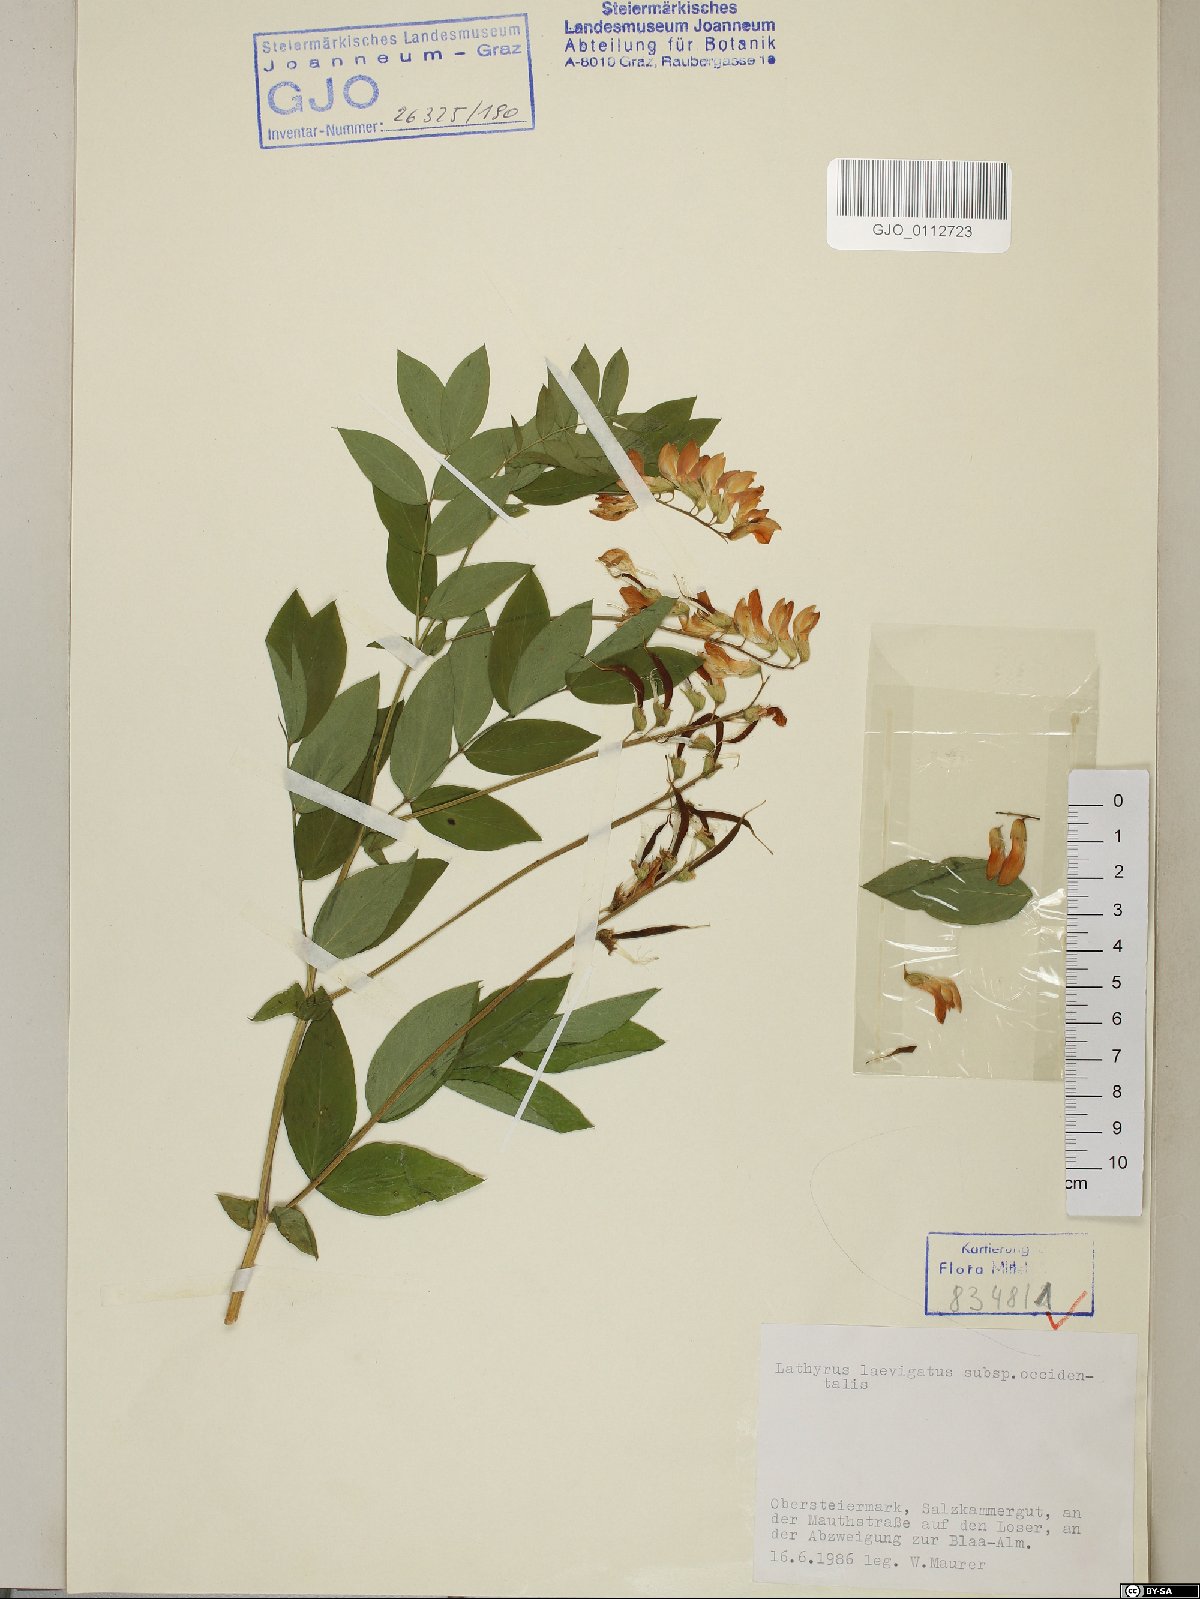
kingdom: Plantae
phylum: Tracheophyta
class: Magnoliopsida
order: Fabales
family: Fabaceae
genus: Lathyrus
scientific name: Lathyrus laevigatus
